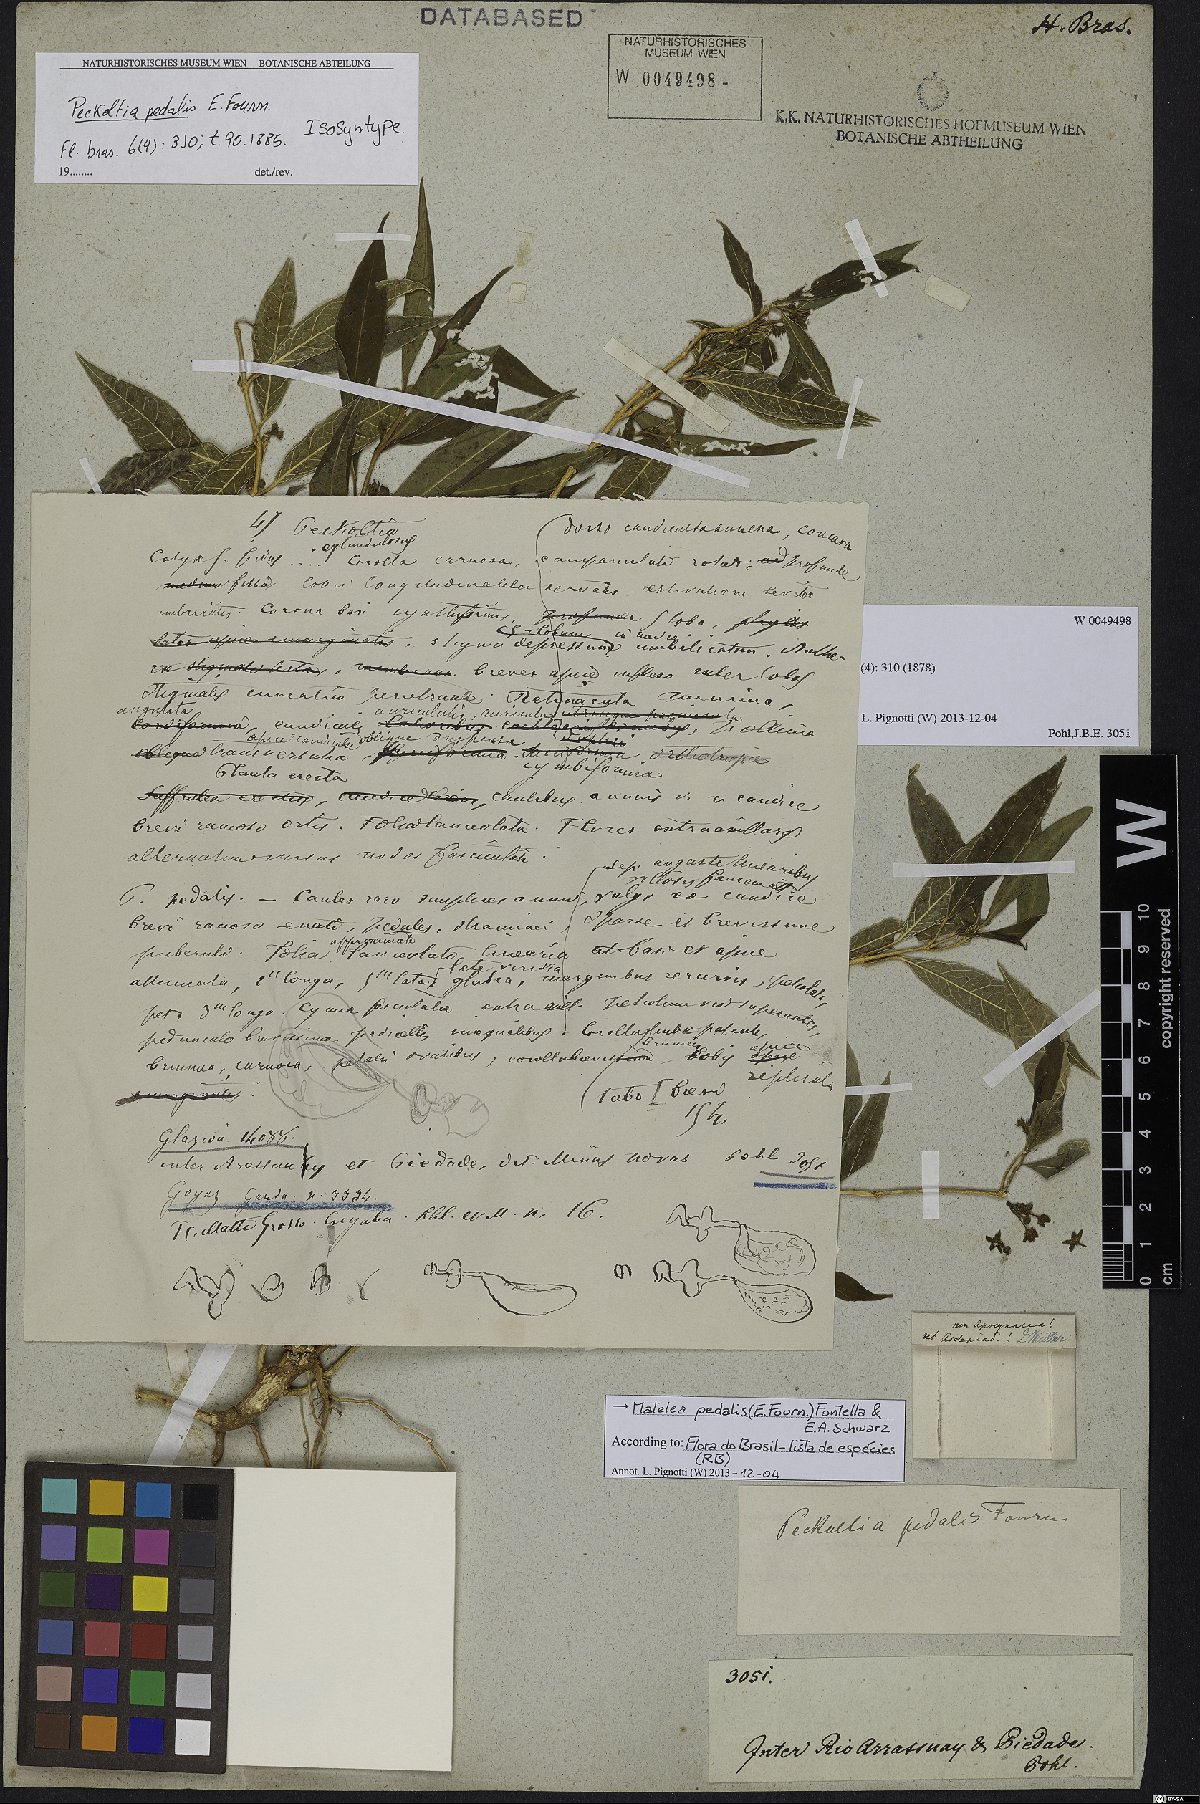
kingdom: Plantae
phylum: Tracheophyta
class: Magnoliopsida
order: Gentianales
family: Apocynaceae
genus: Matelea
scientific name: Matelea pedalis
